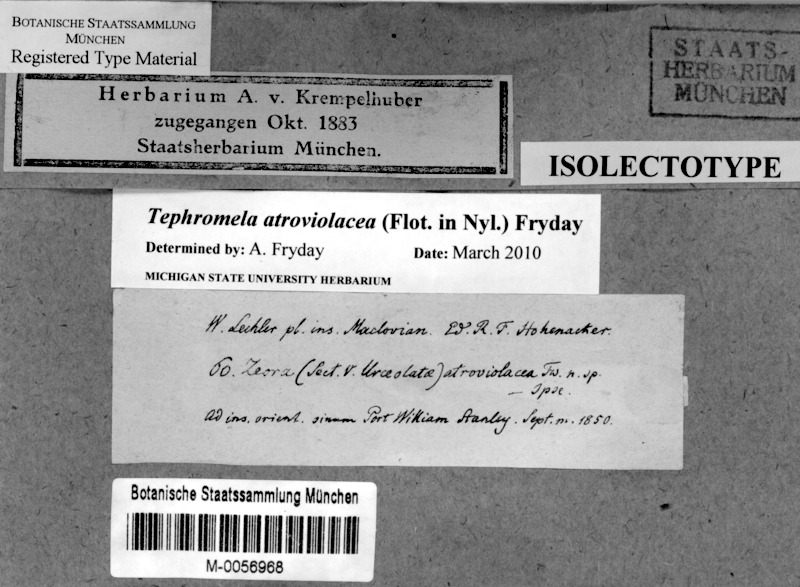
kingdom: Fungi
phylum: Ascomycota
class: Lecanoromycetes
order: Lecanorales
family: Tephromelataceae
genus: Tephromela
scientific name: Tephromela atroviolacea
